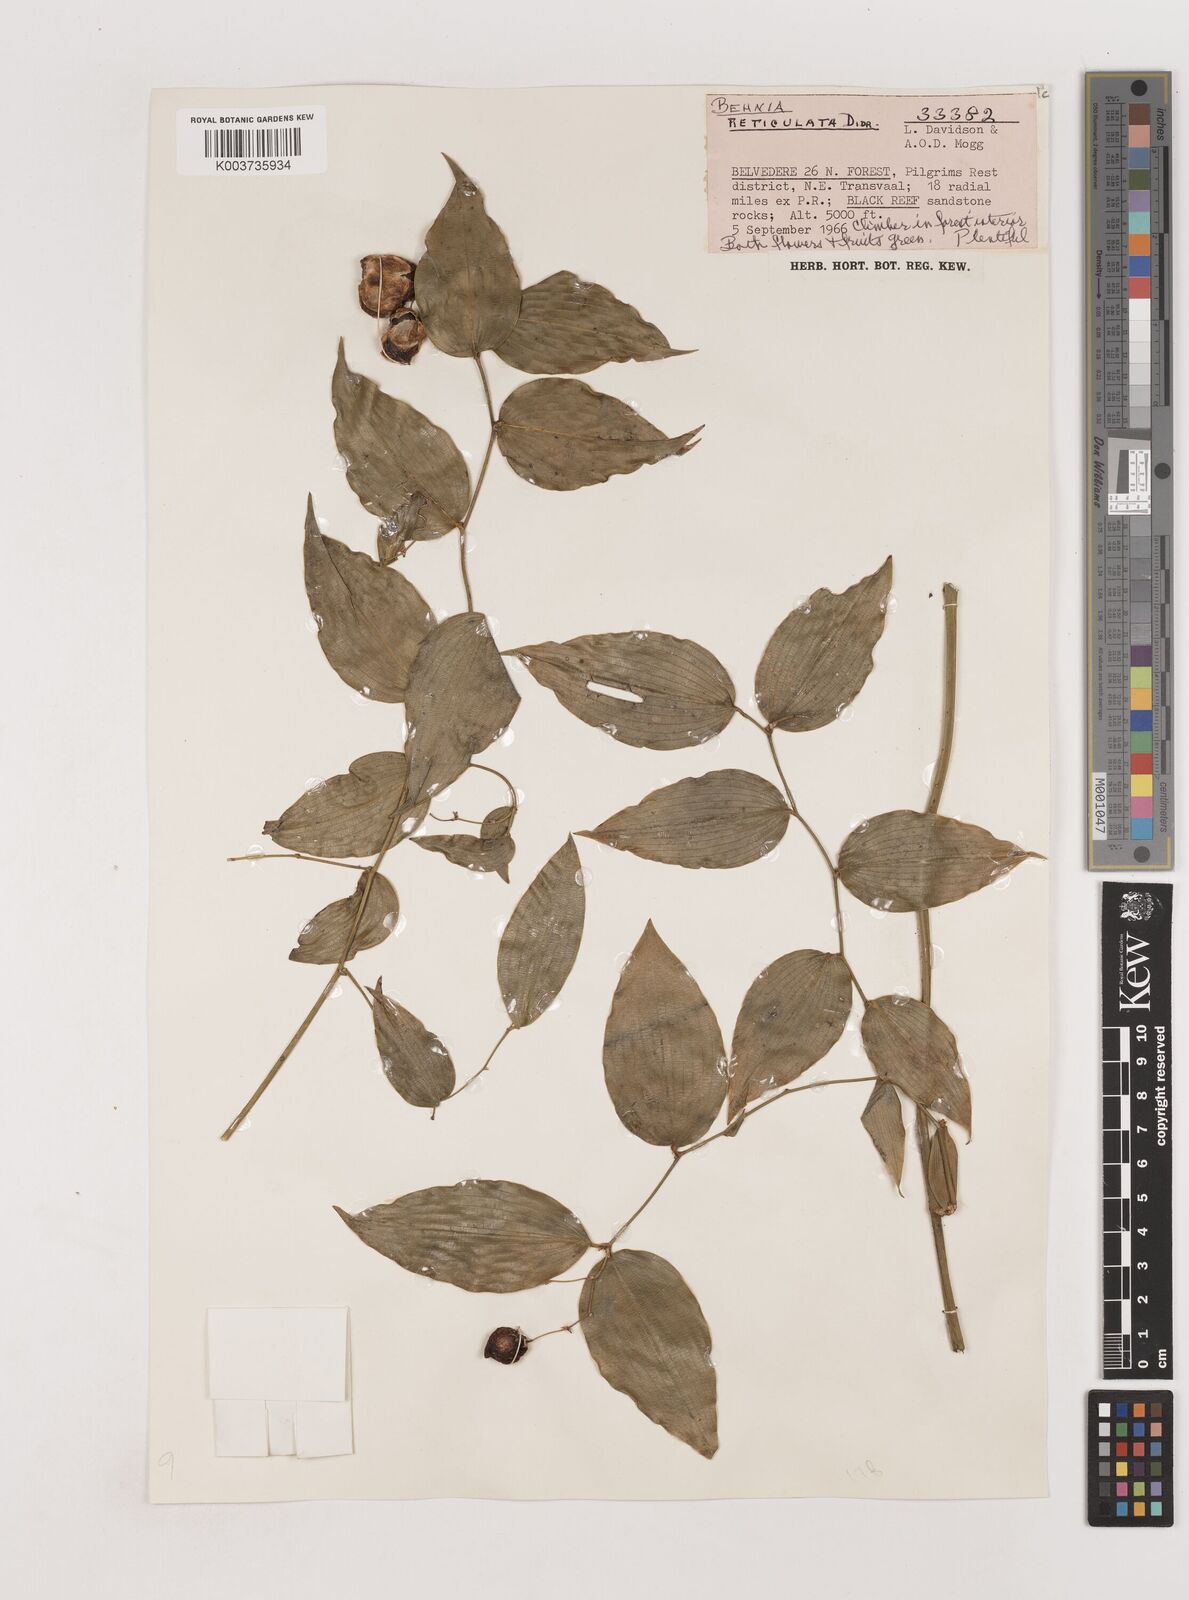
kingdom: Plantae
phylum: Tracheophyta
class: Liliopsida
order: Asparagales
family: Asparagaceae
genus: Behnia
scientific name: Behnia reticulata
